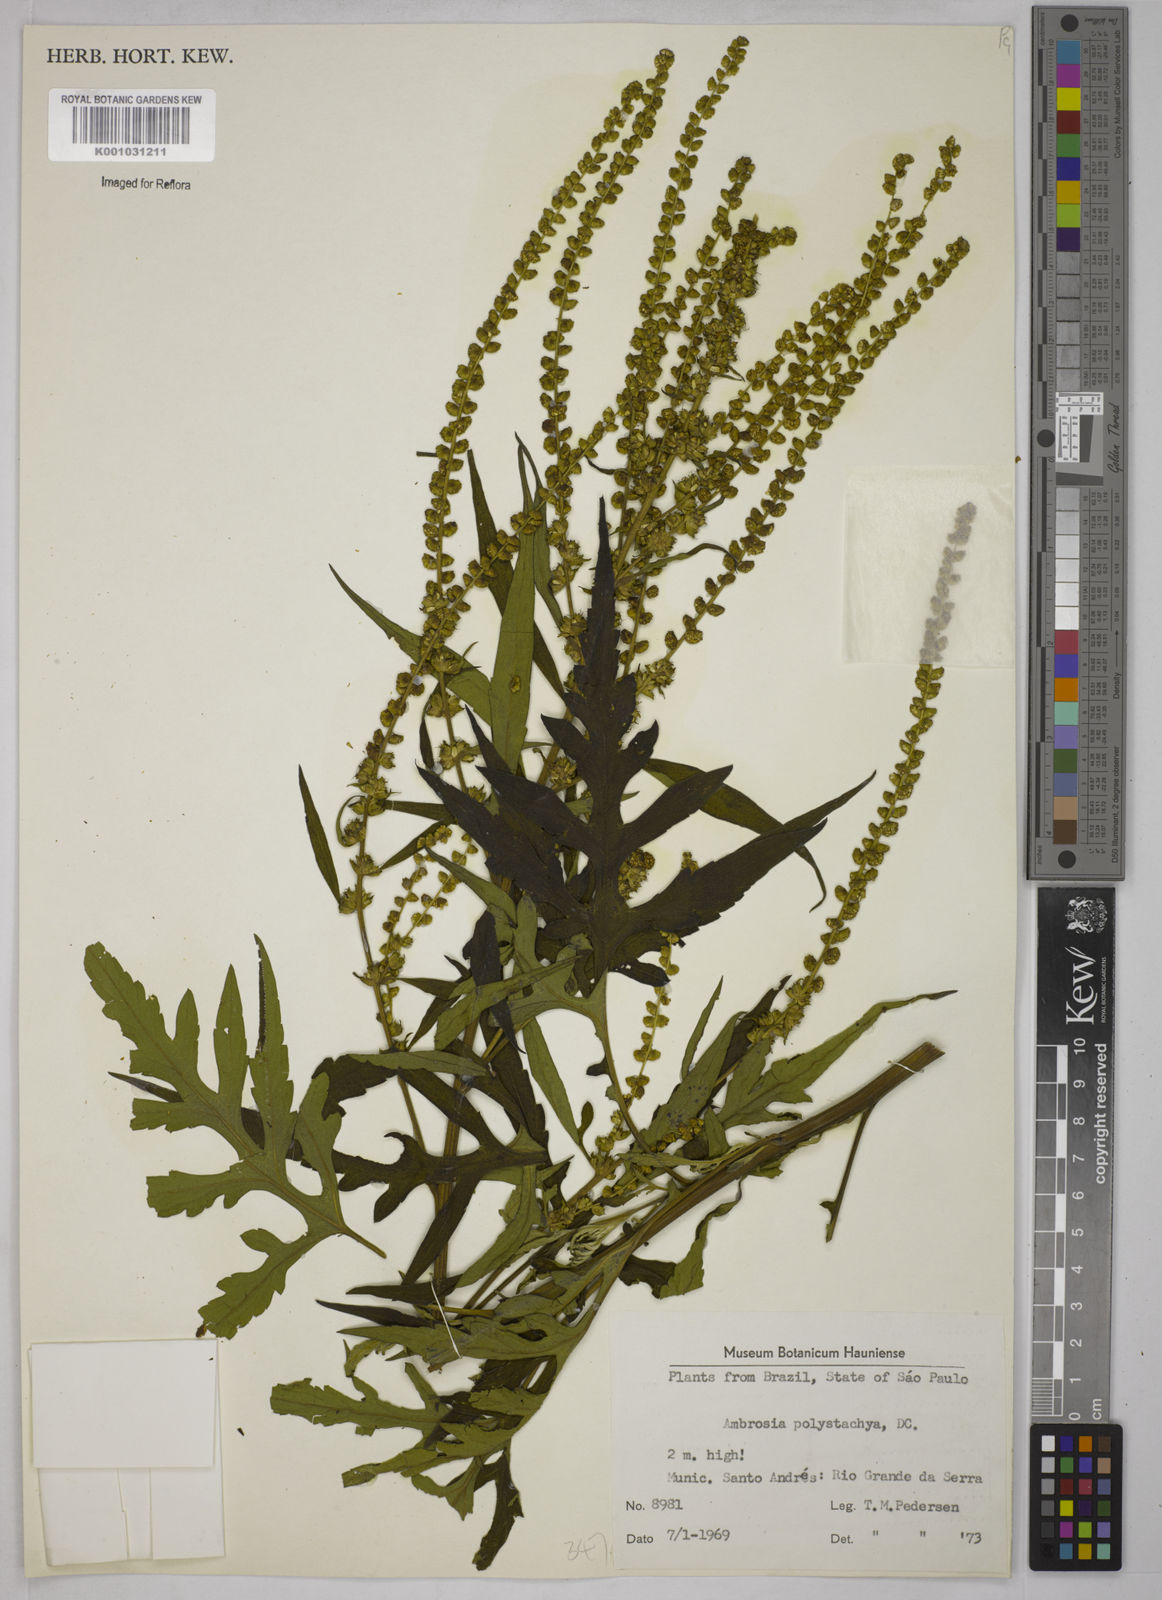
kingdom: Plantae
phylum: Tracheophyta
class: Magnoliopsida
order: Asterales
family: Asteraceae
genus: Ambrosia
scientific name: Ambrosia polystachya
